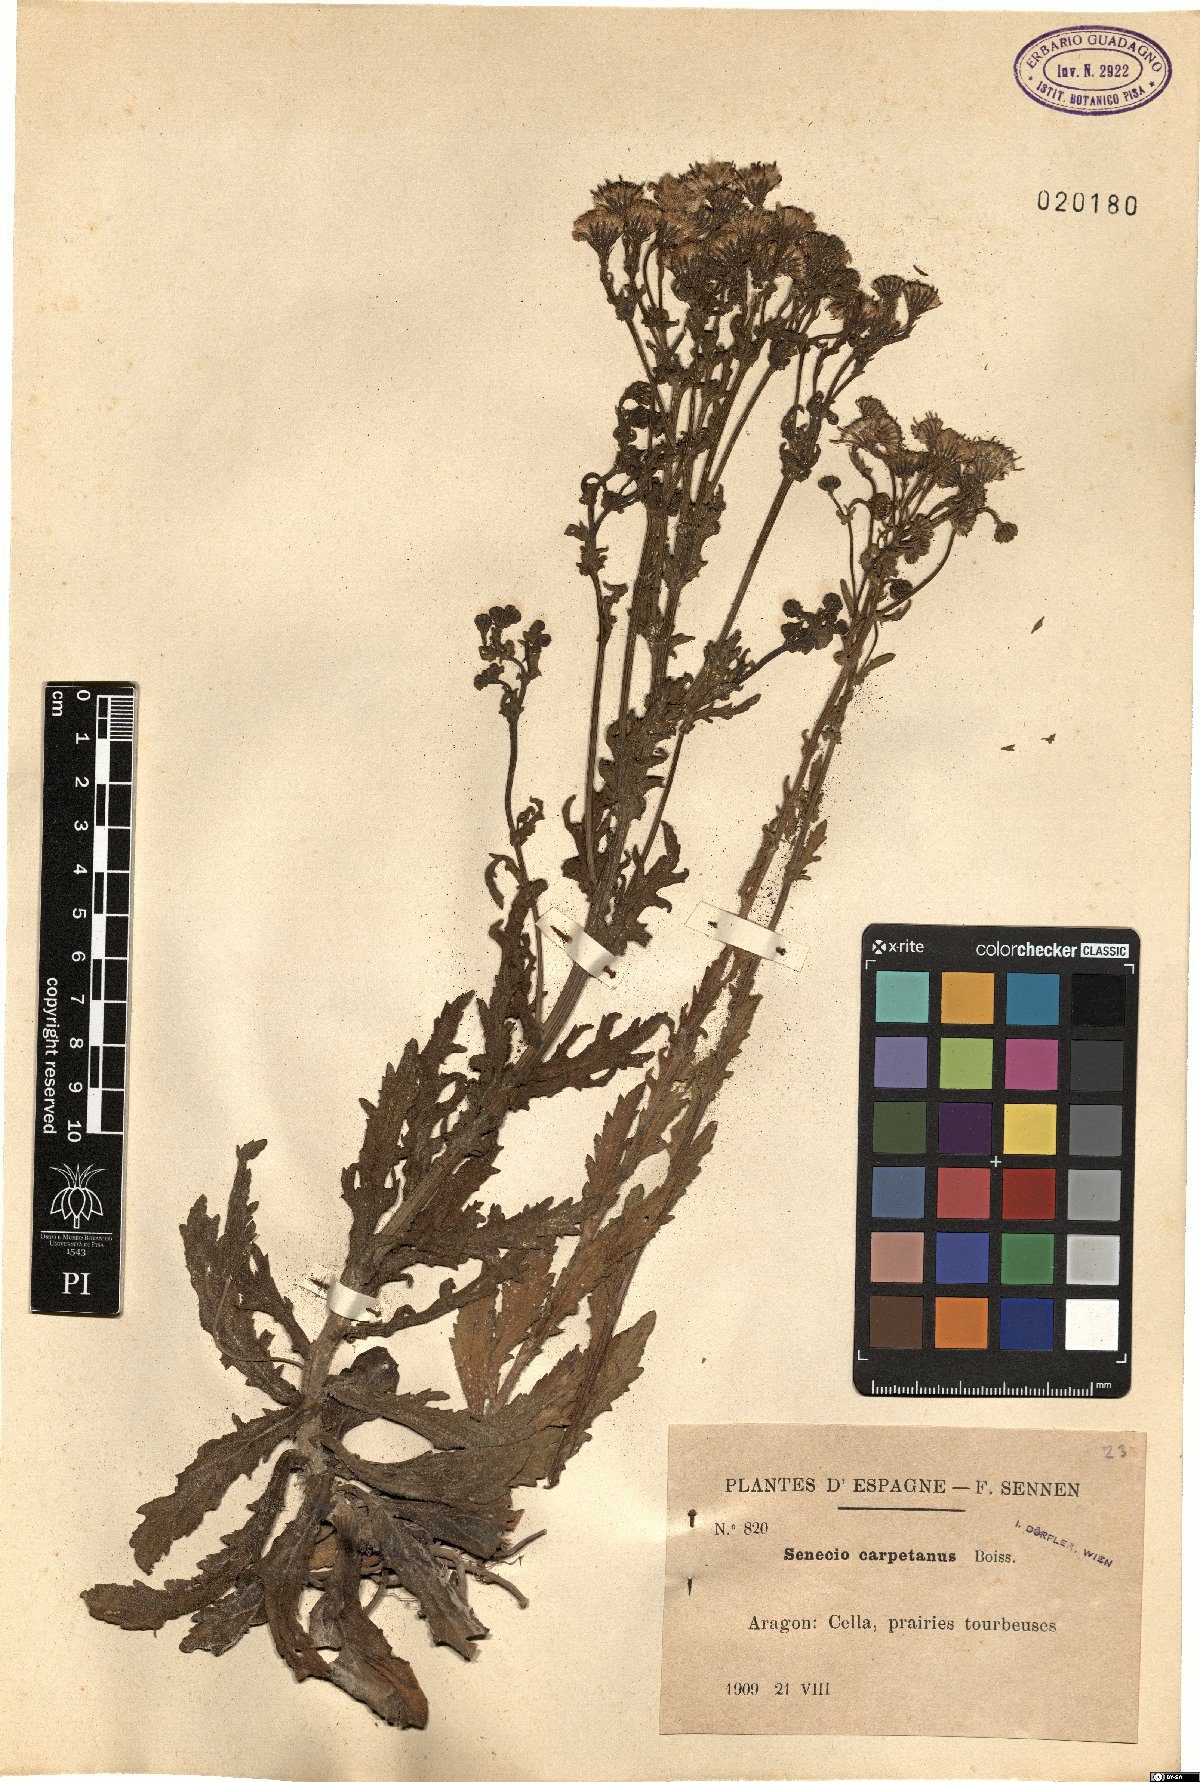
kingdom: Plantae
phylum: Tracheophyta
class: Magnoliopsida
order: Asterales
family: Asteraceae
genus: Senecio
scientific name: Senecio carpetanus
